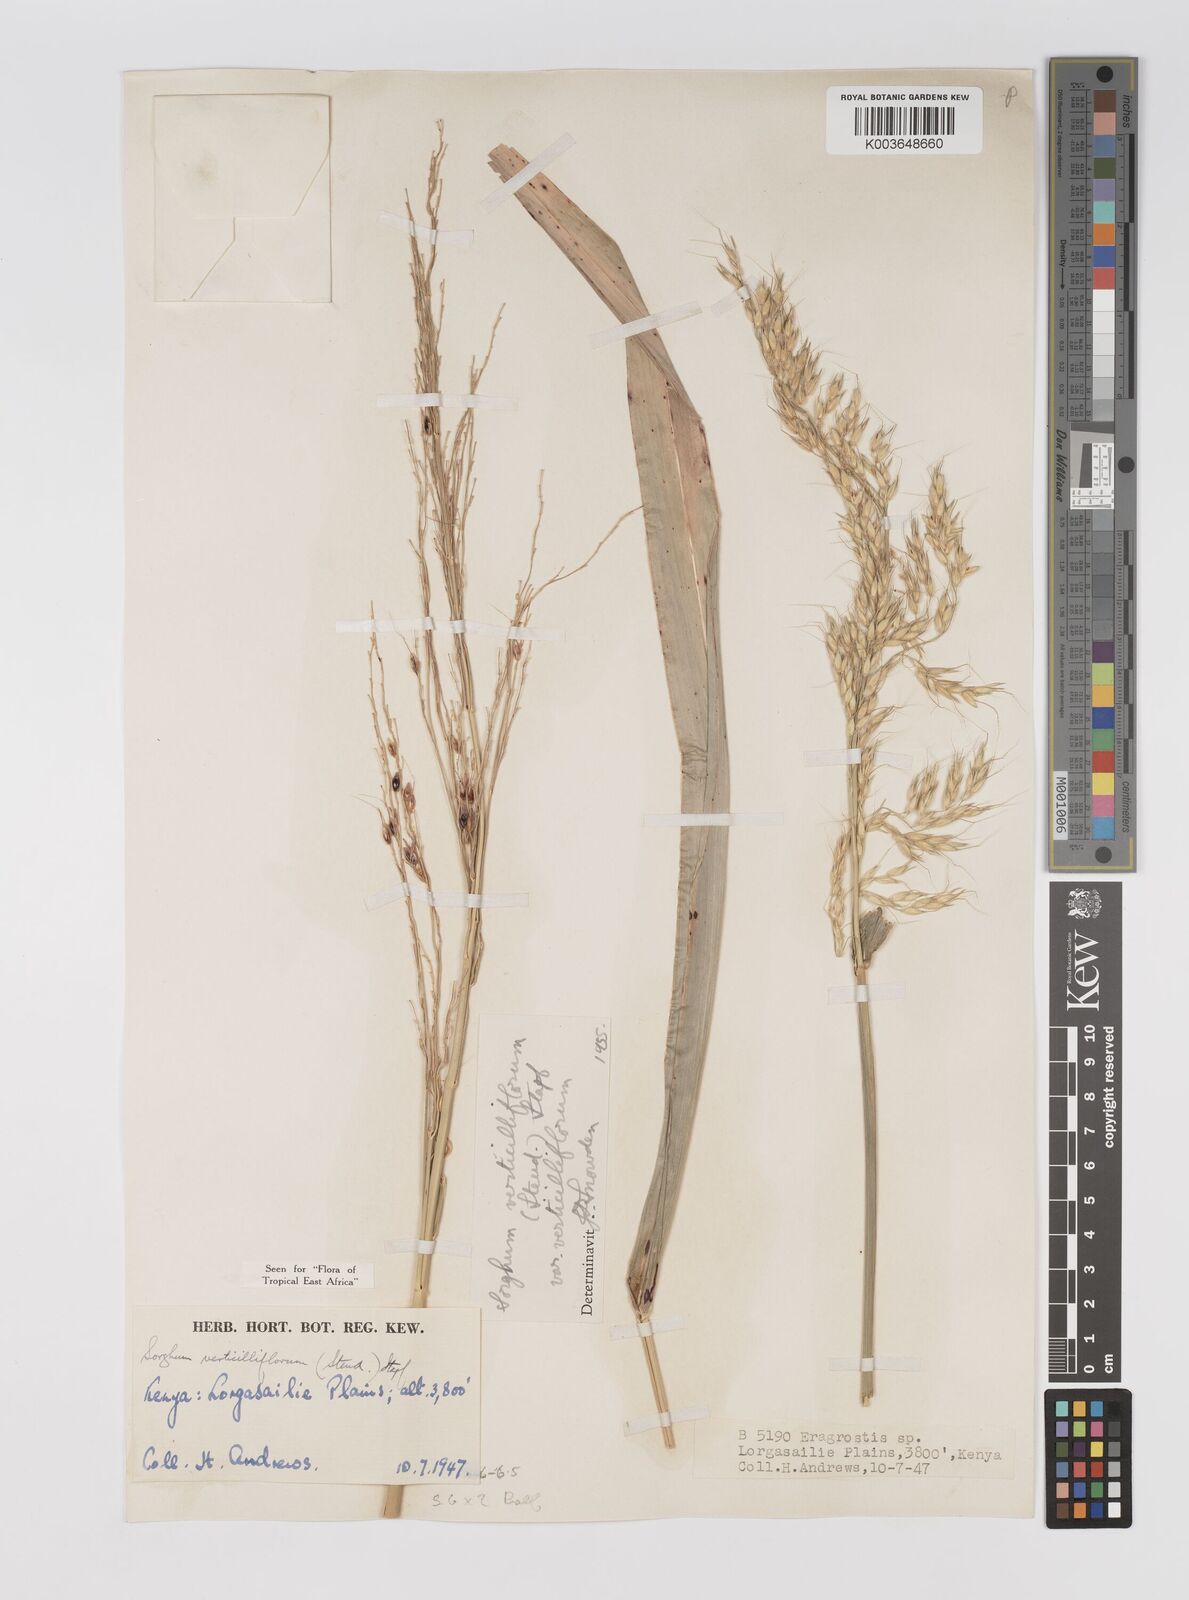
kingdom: Plantae
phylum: Tracheophyta
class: Liliopsida
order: Poales
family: Poaceae
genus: Sorghum
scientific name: Sorghum arundinaceum
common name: Sorghum
